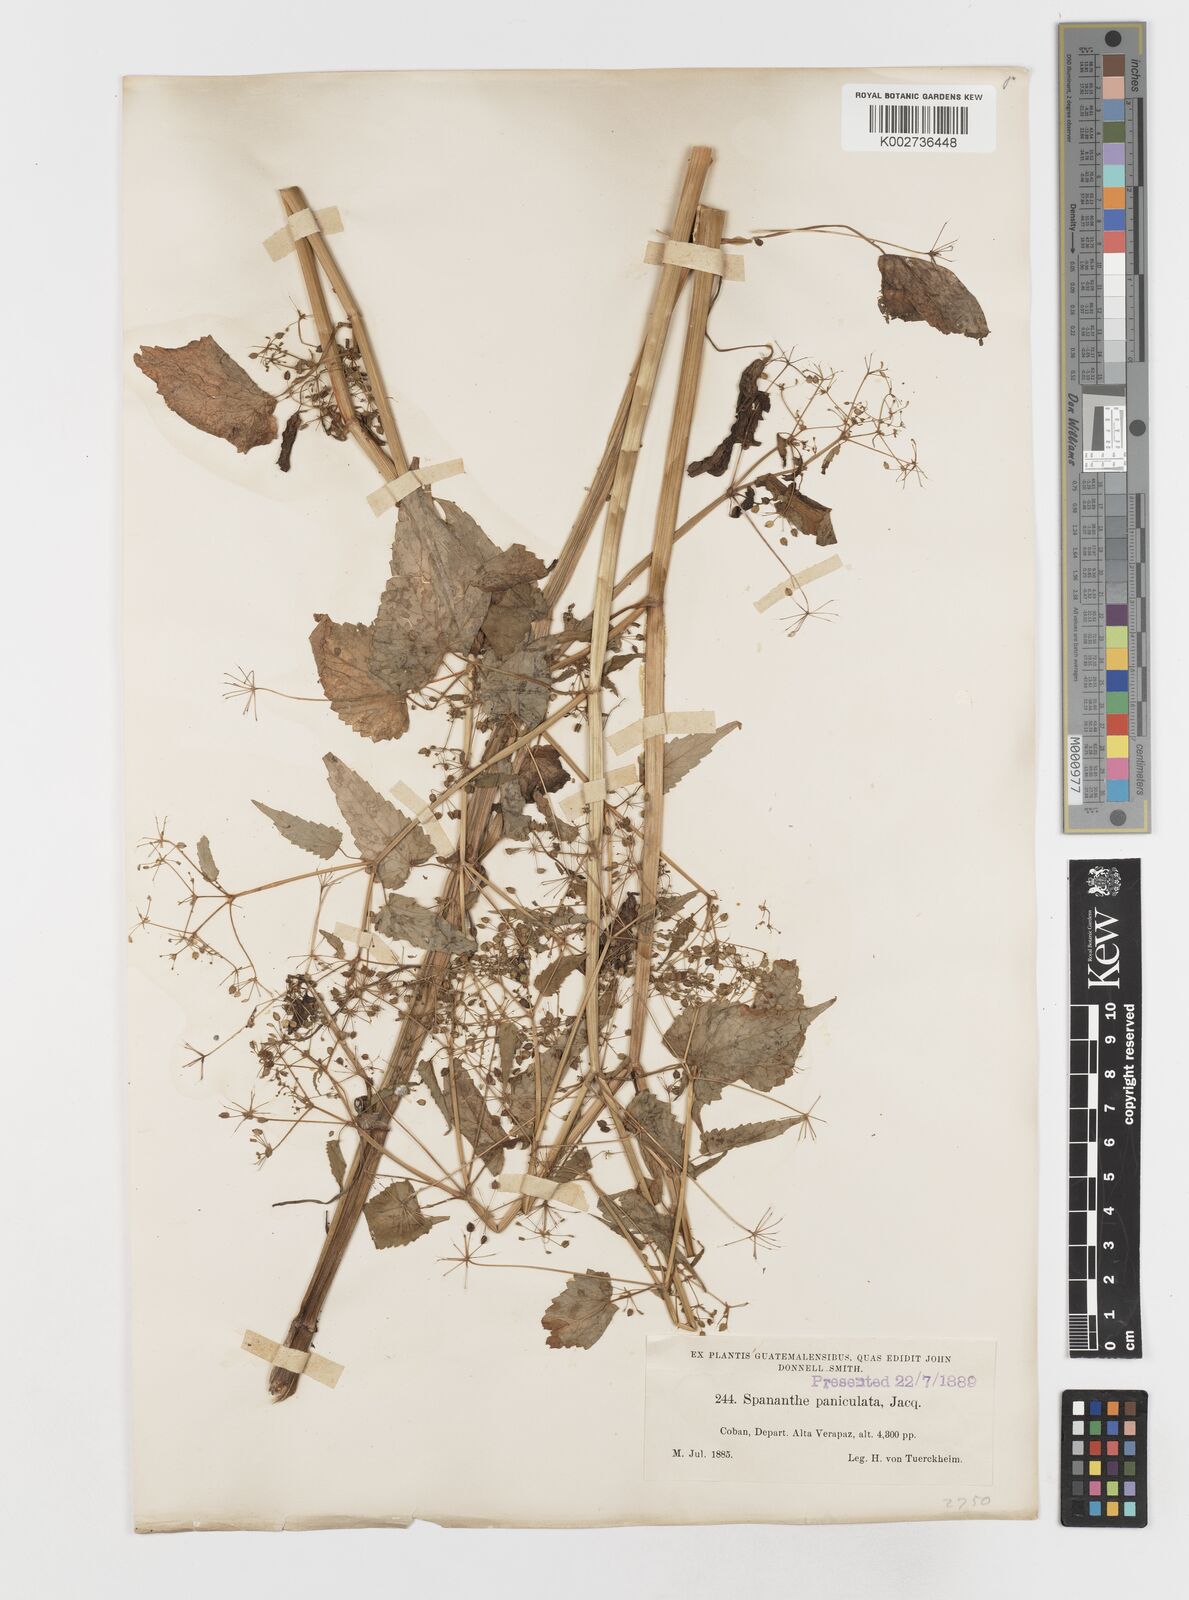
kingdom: Plantae
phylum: Tracheophyta
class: Magnoliopsida
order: Apiales
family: Apiaceae
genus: Spananthe
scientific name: Spananthe paniculata
